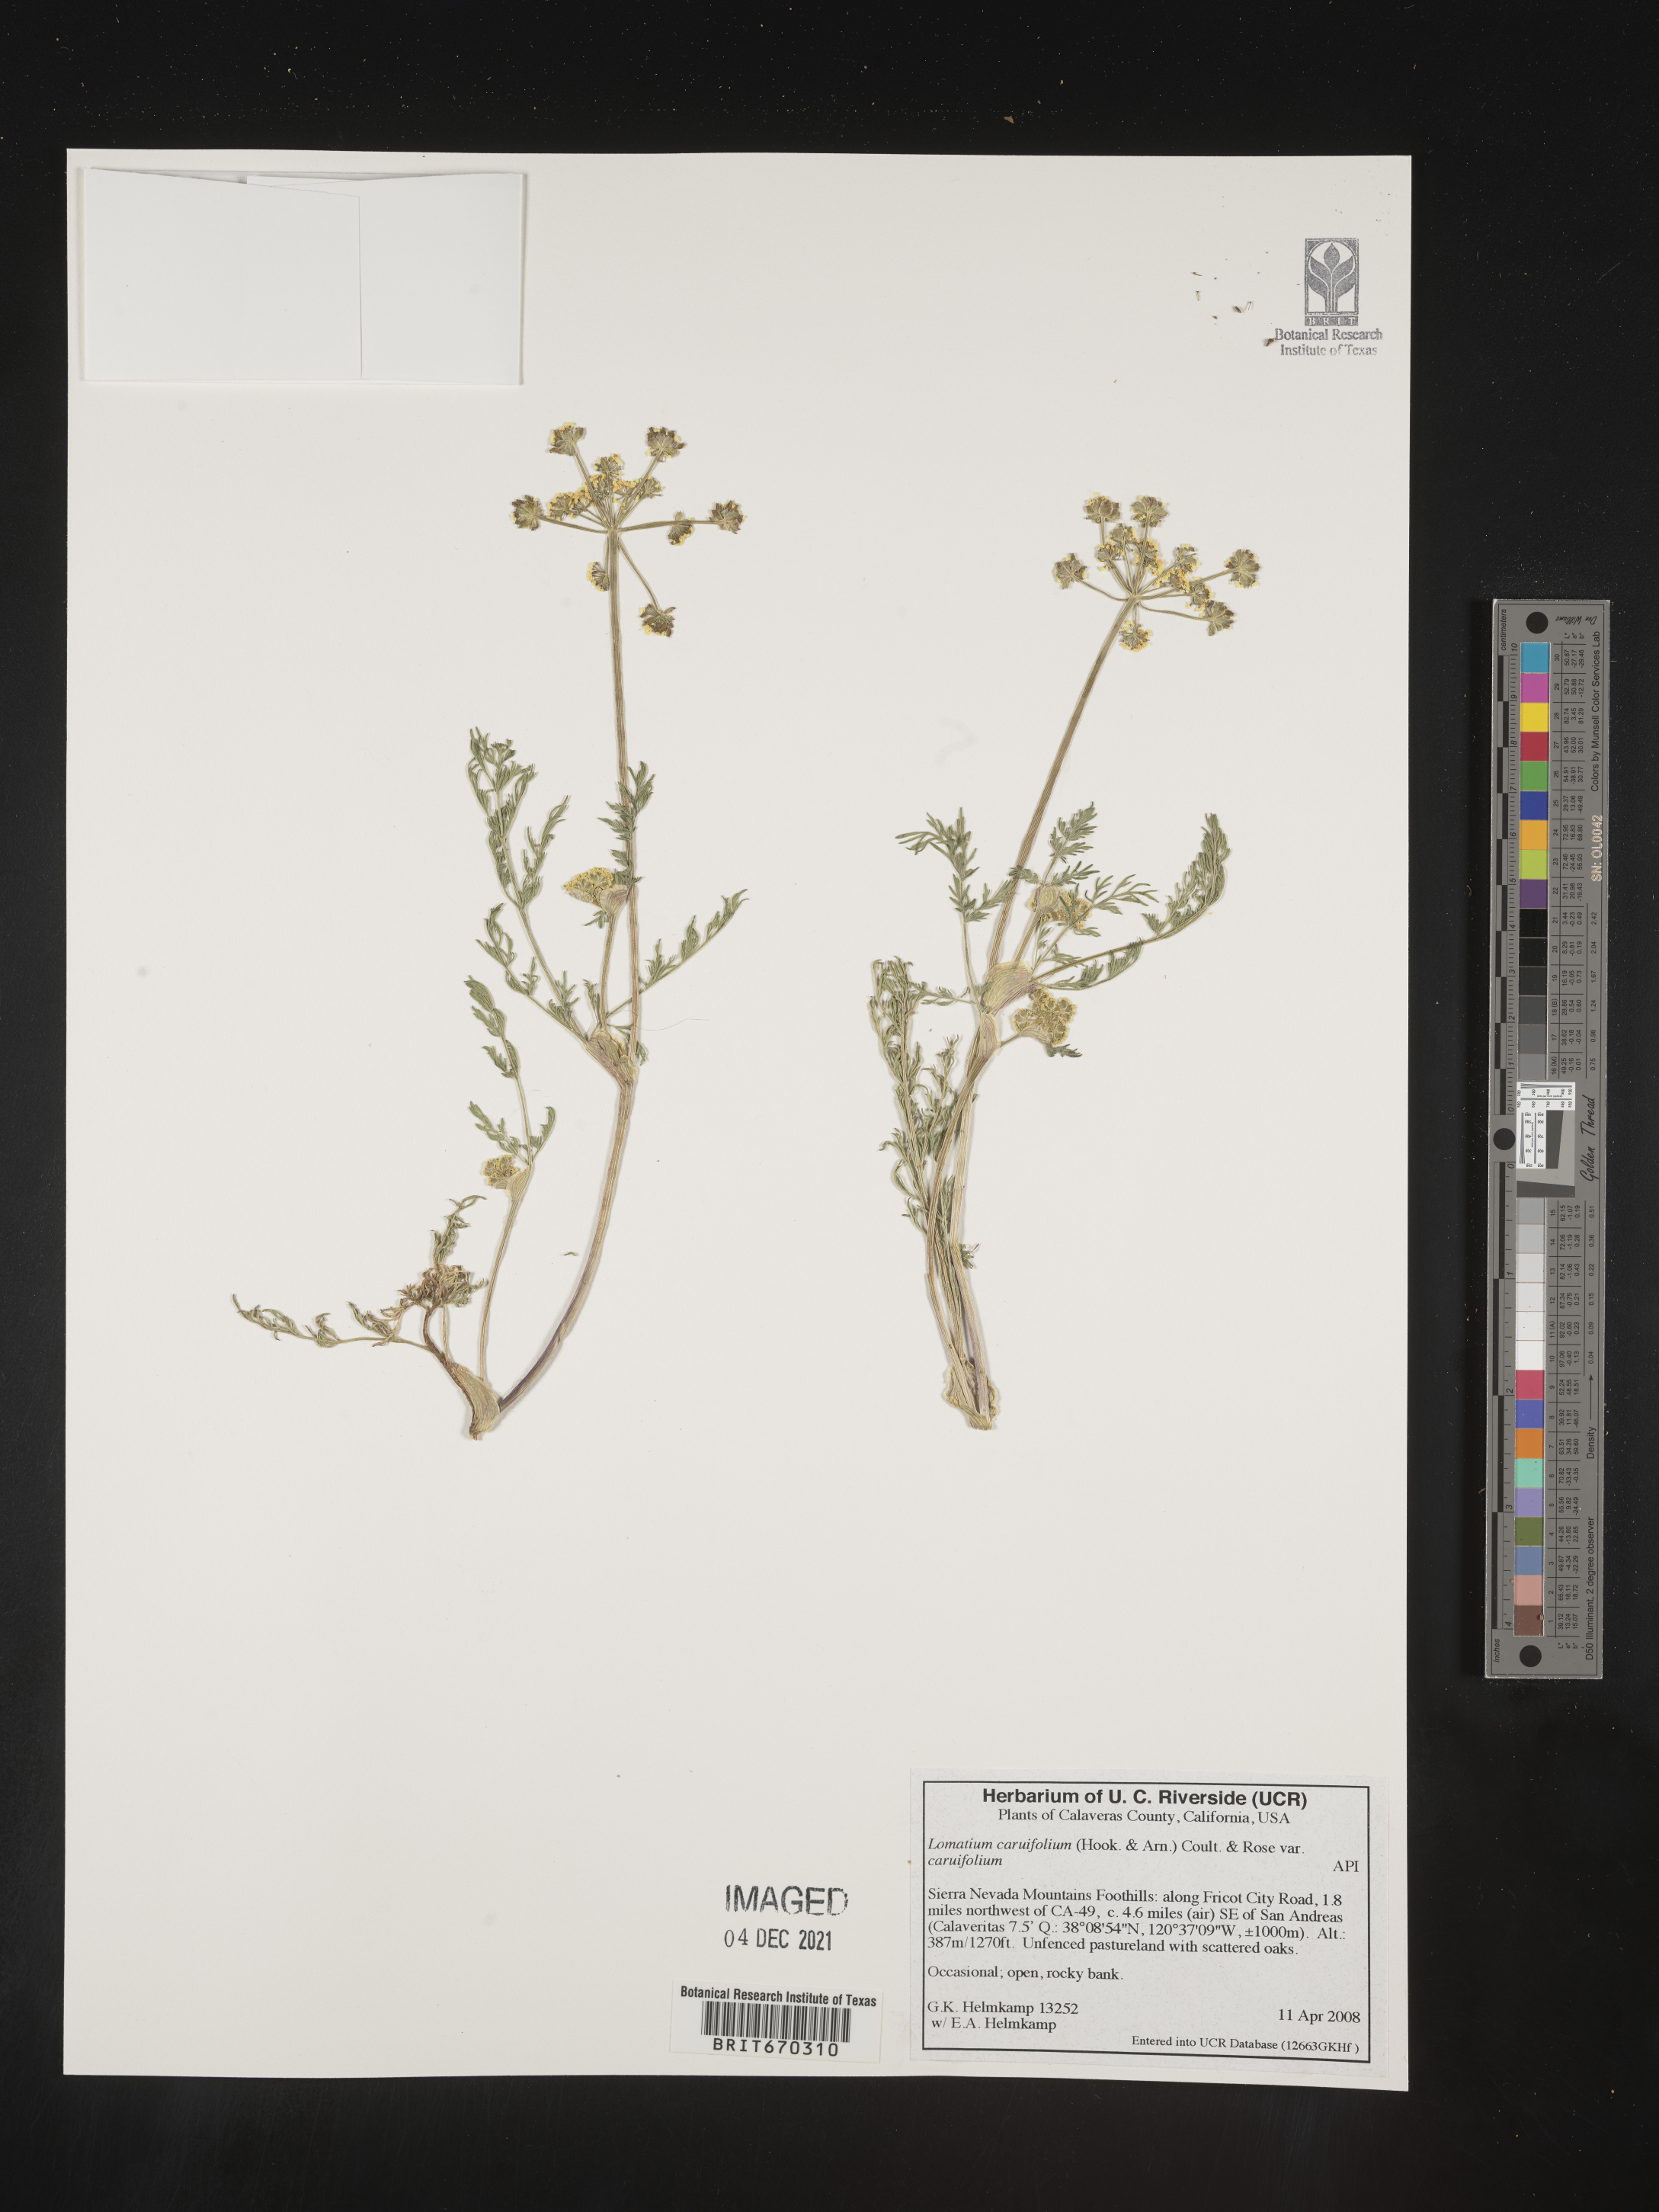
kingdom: Plantae
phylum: Tracheophyta
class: Magnoliopsida
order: Apiales
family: Apiaceae
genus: Lomatium
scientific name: Lomatium caruifolium
